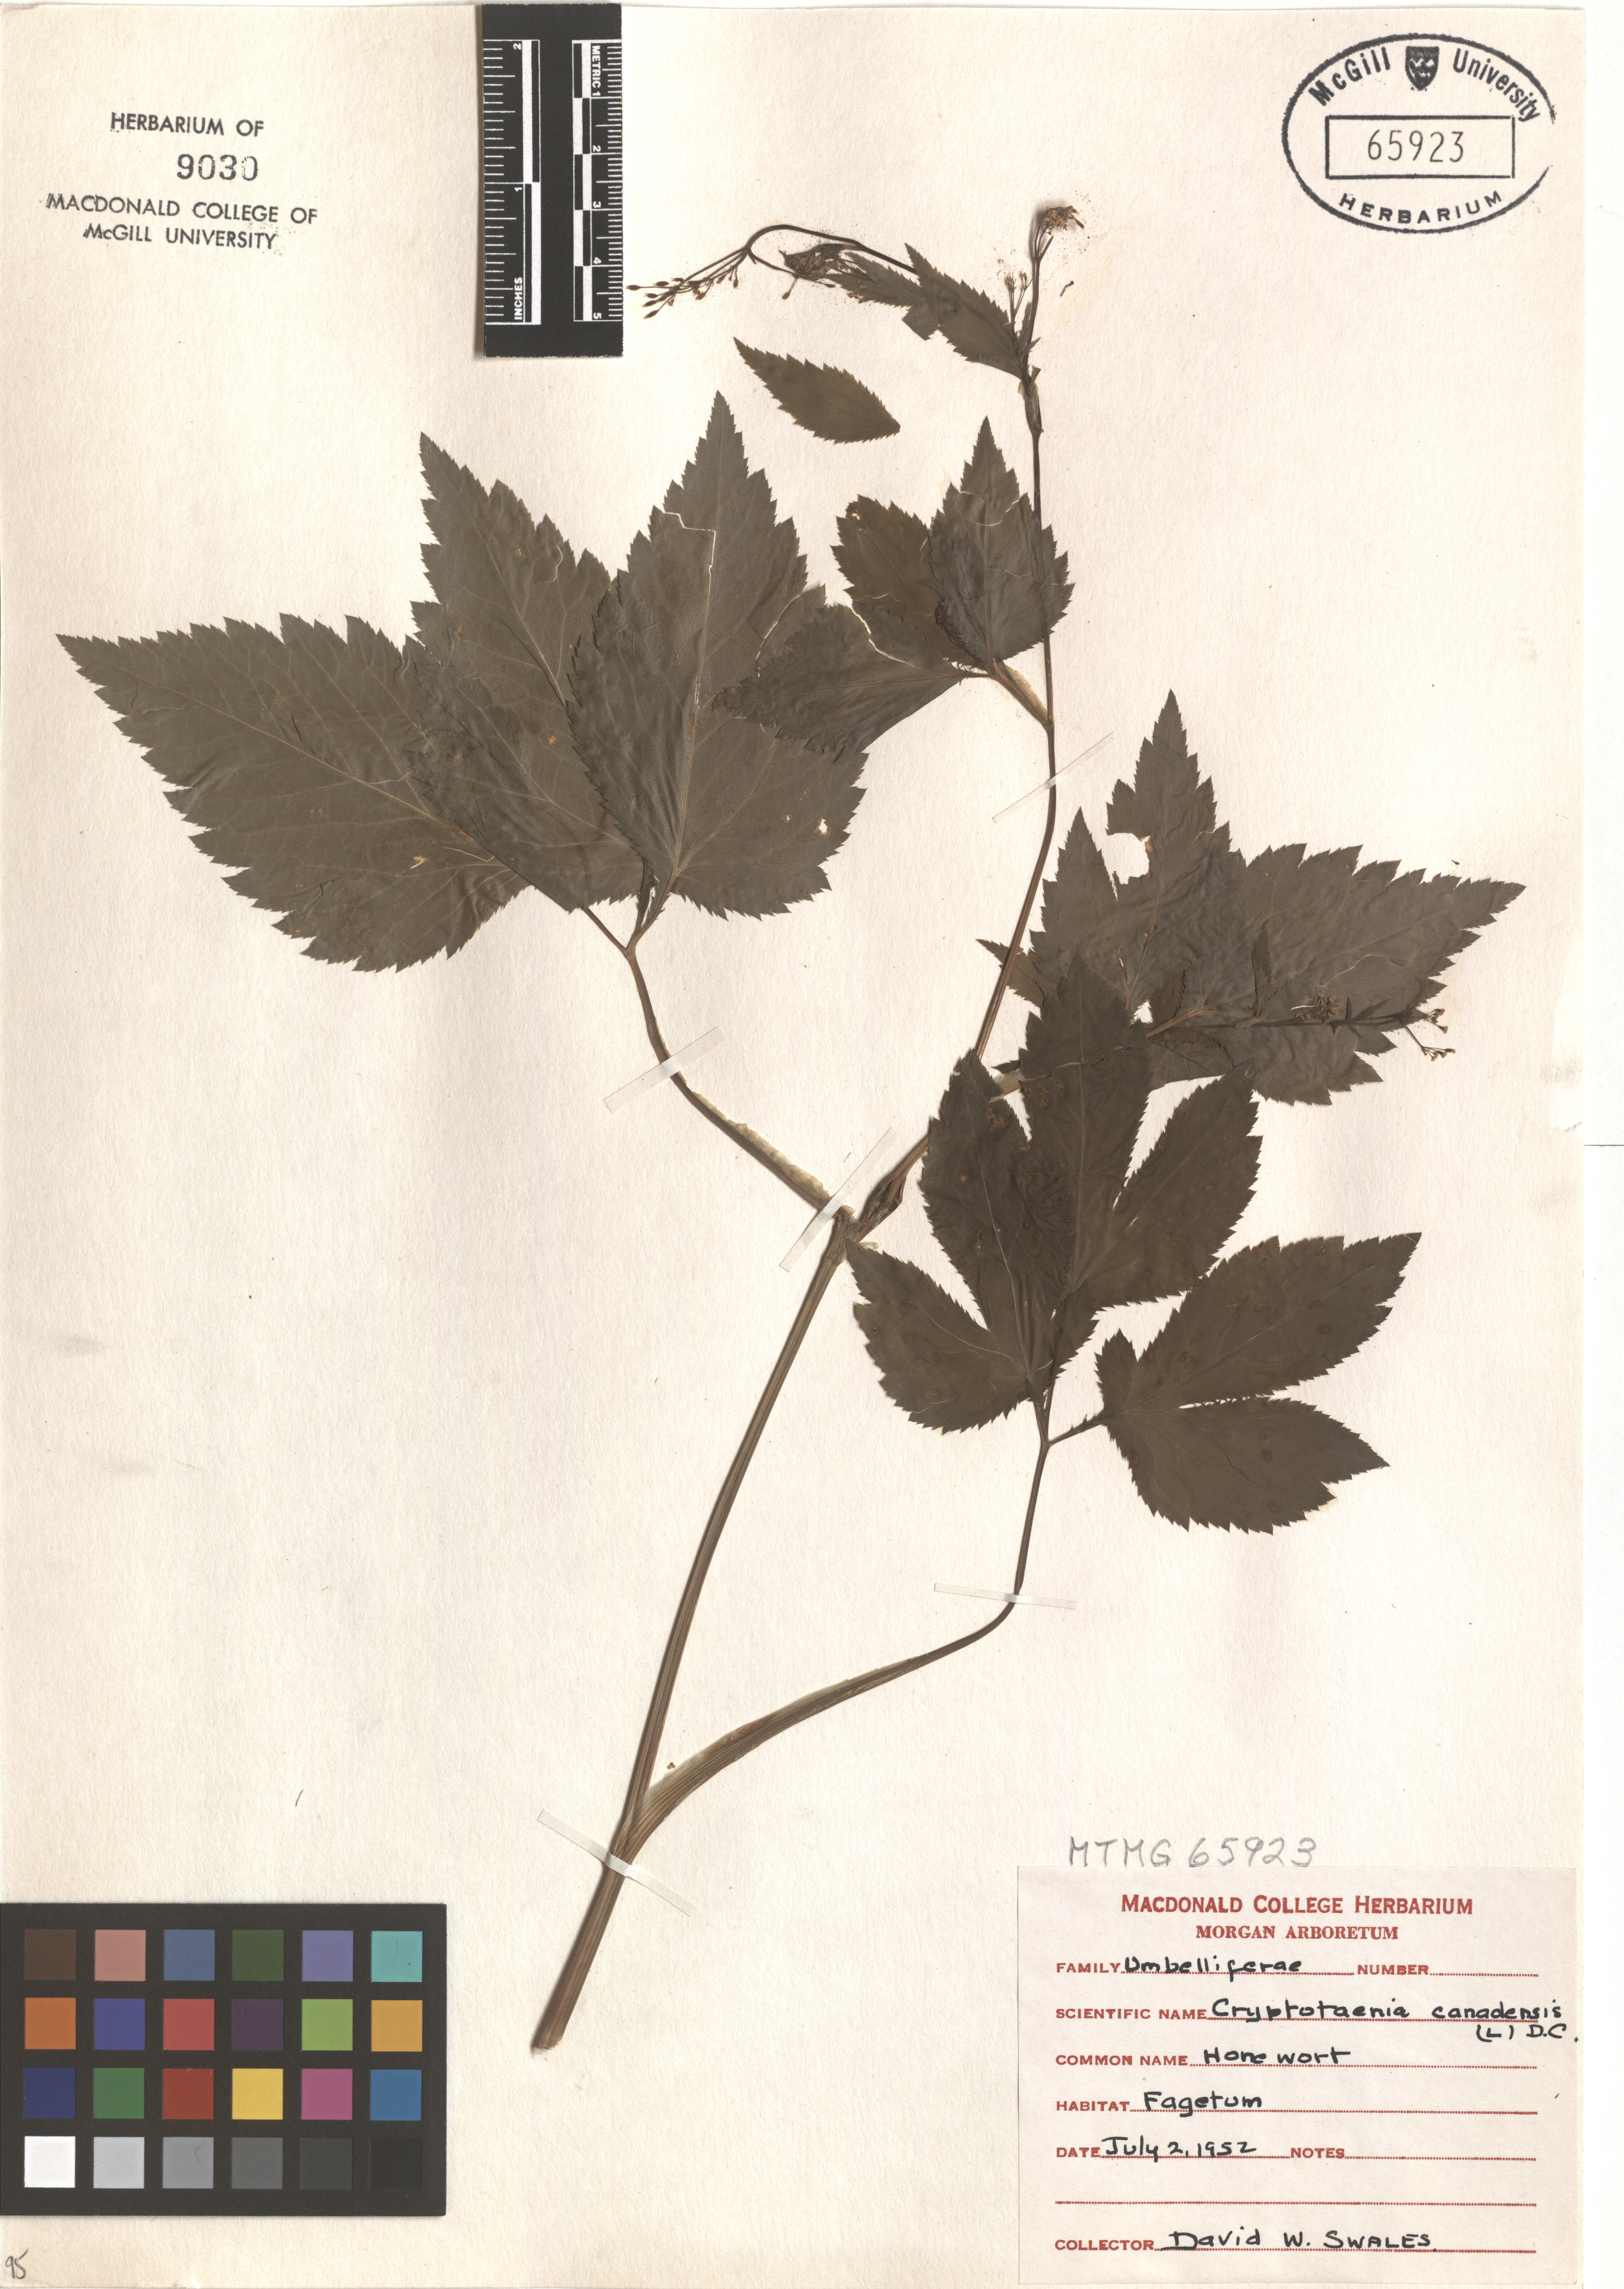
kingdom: Plantae
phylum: Tracheophyta
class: Magnoliopsida
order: Apiales
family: Apiaceae
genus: Cryptotaenia
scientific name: Cryptotaenia canadensis
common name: Honewort
